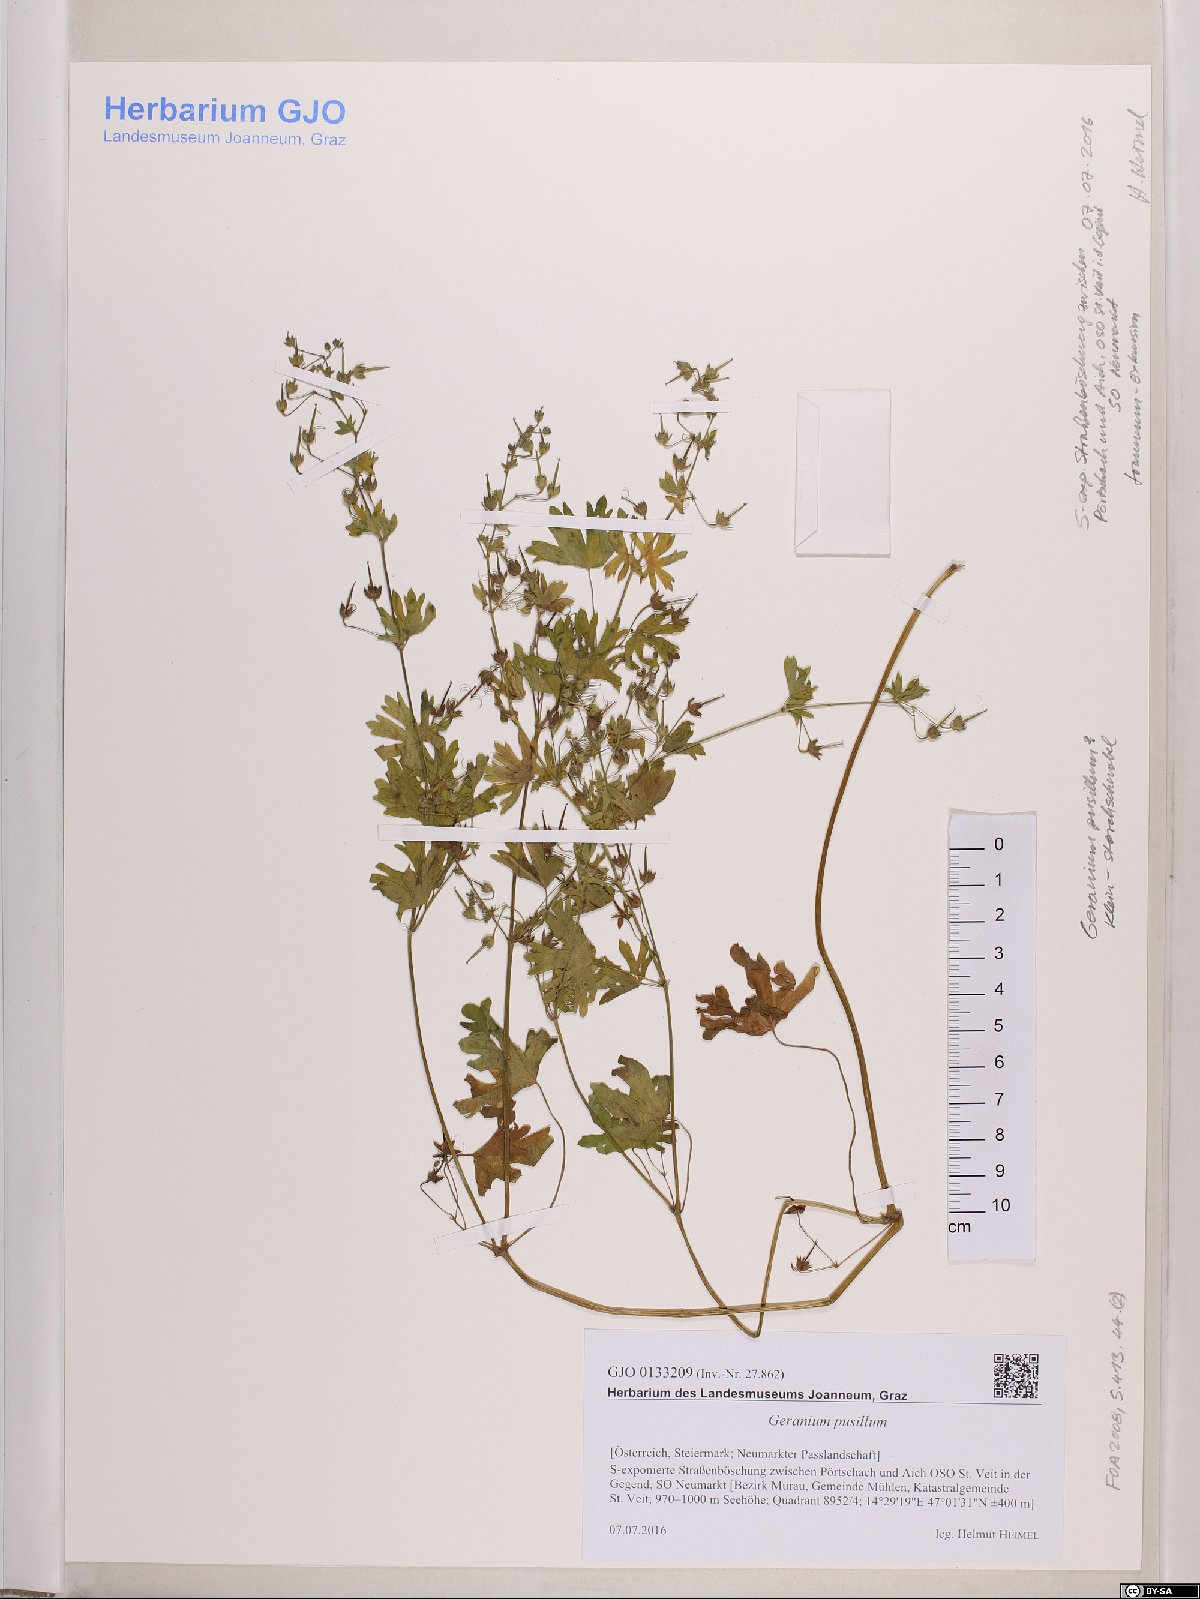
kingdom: Plantae
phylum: Tracheophyta
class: Magnoliopsida
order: Geraniales
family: Geraniaceae
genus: Geranium
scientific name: Geranium pusillum
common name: Small geranium
